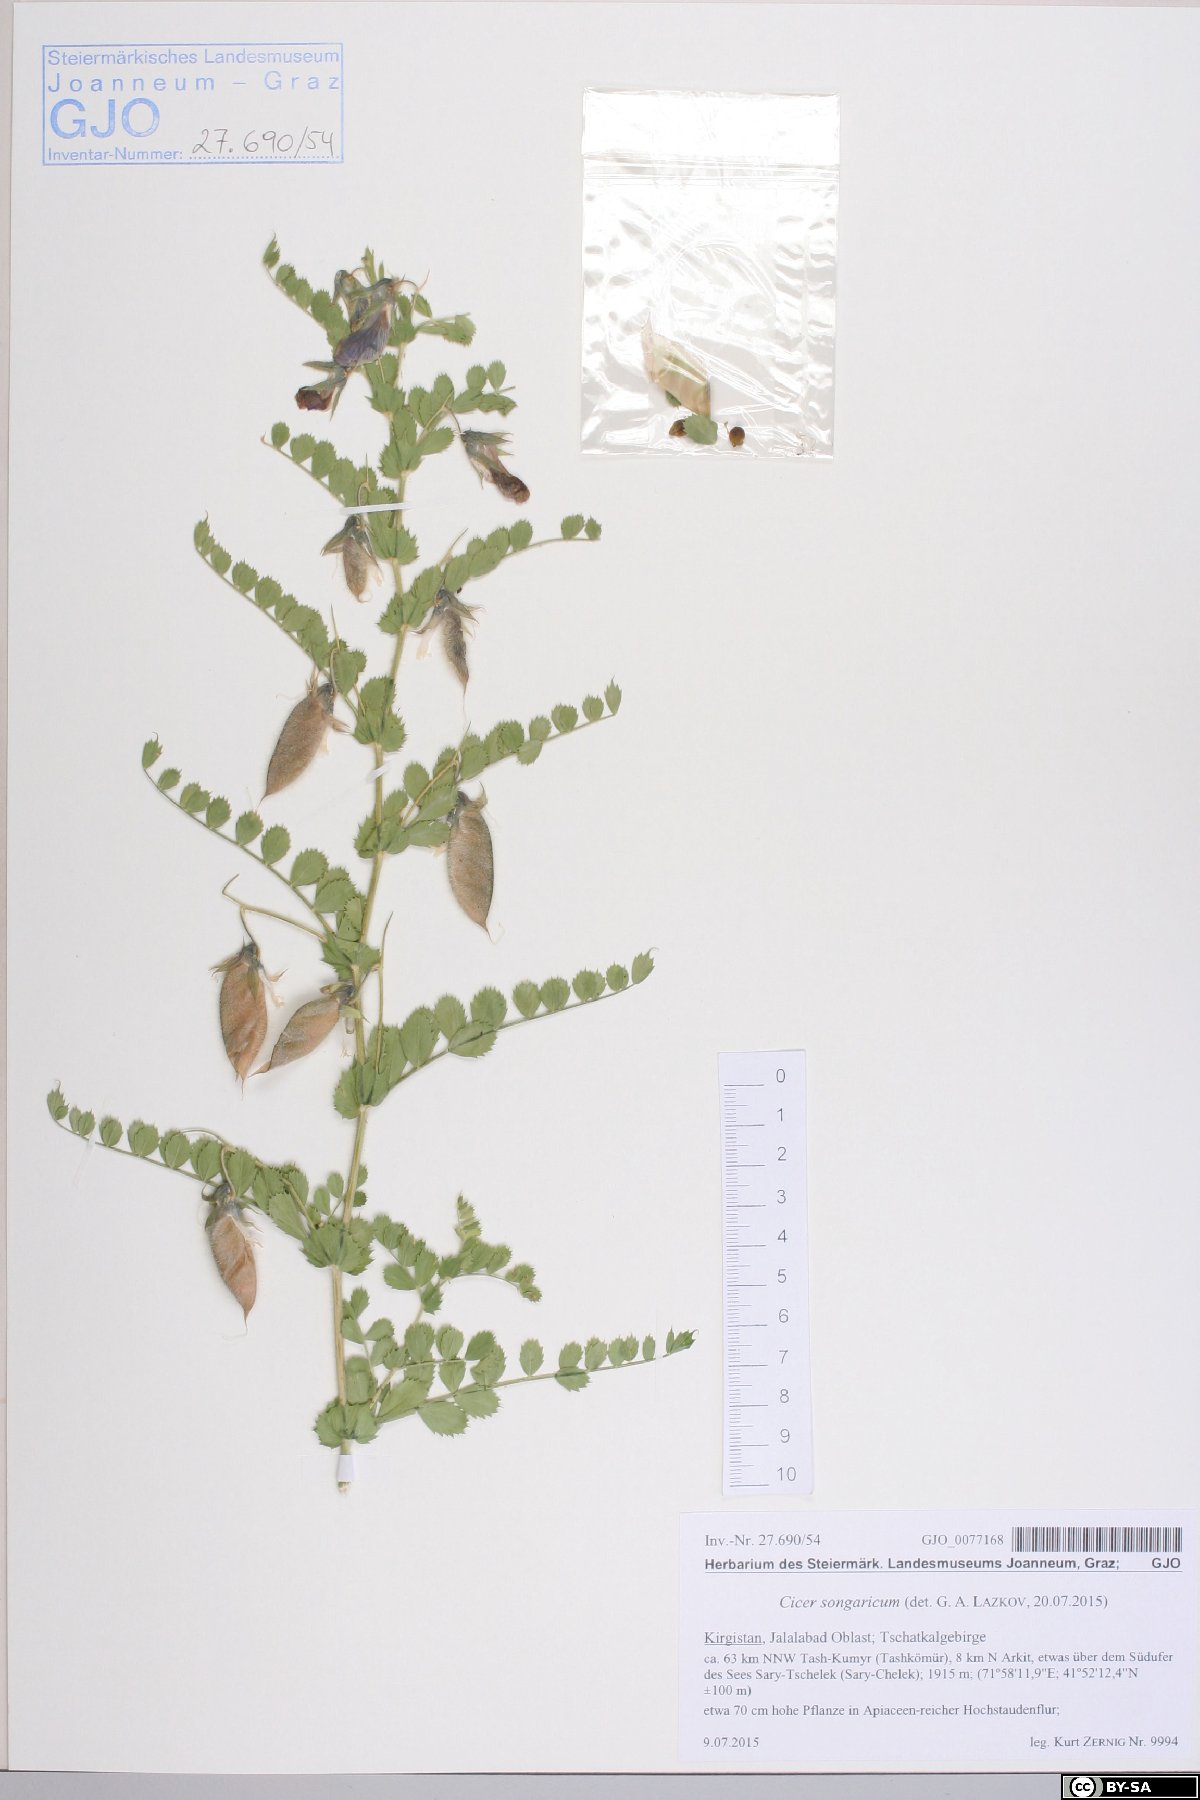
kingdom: Plantae
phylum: Tracheophyta
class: Magnoliopsida
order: Fabales
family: Fabaceae
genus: Cicer
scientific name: Cicer songaricum
